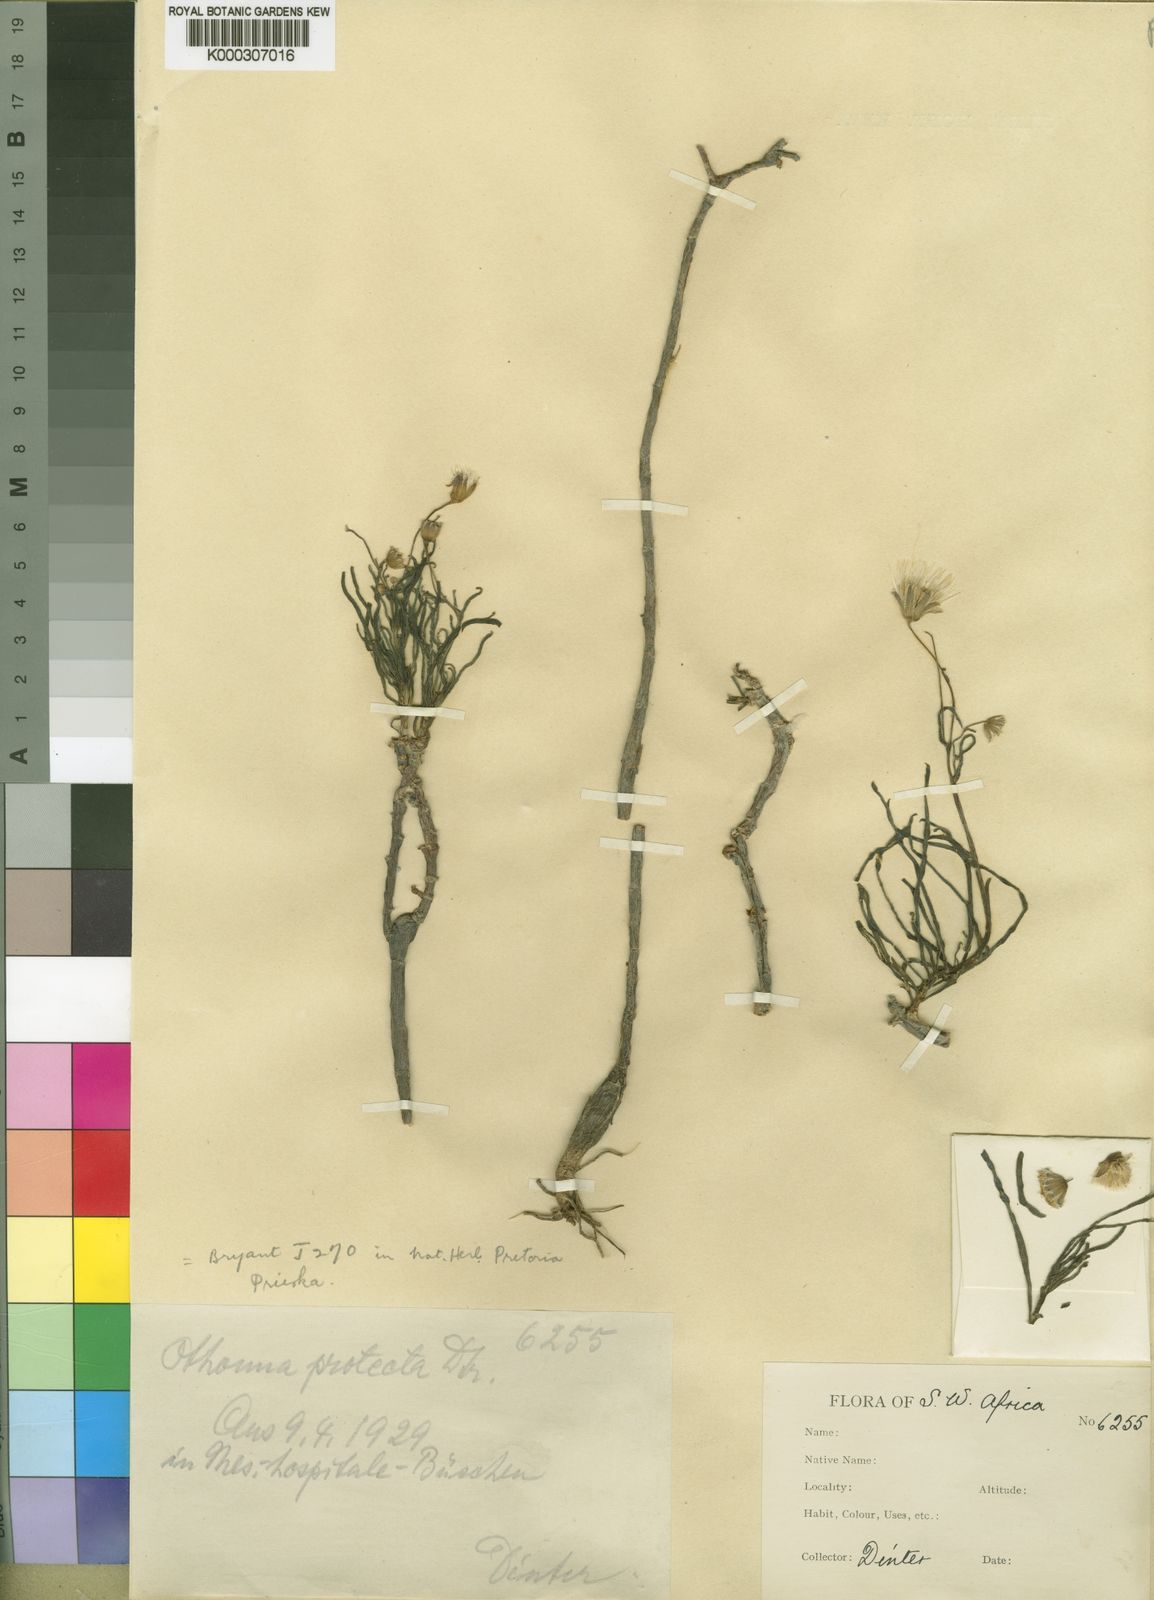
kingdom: Plantae
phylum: Tracheophyta
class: Magnoliopsida
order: Asterales
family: Asteraceae
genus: Crassothonna
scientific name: Crassothonna protecta
